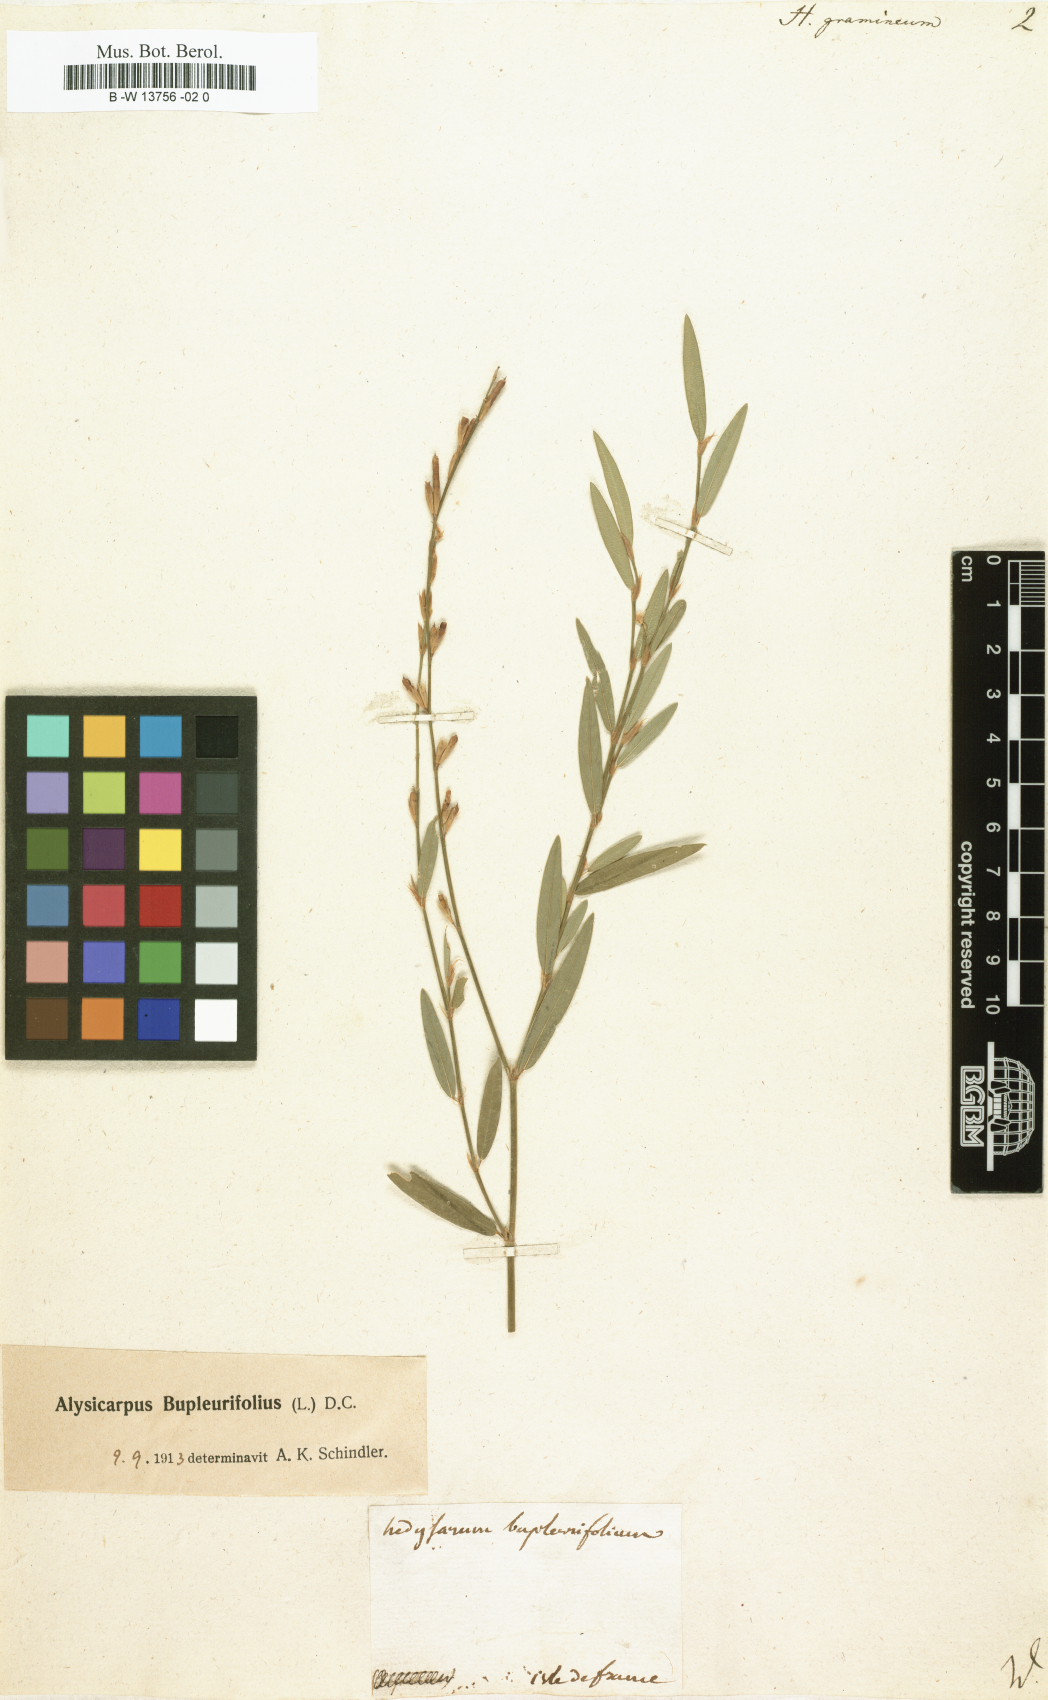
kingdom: Plantae
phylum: Tracheophyta
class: Magnoliopsida
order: Fabales
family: Fabaceae
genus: Alysicarpus
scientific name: Alysicarpus bupleurifolius
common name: Sweet alys
